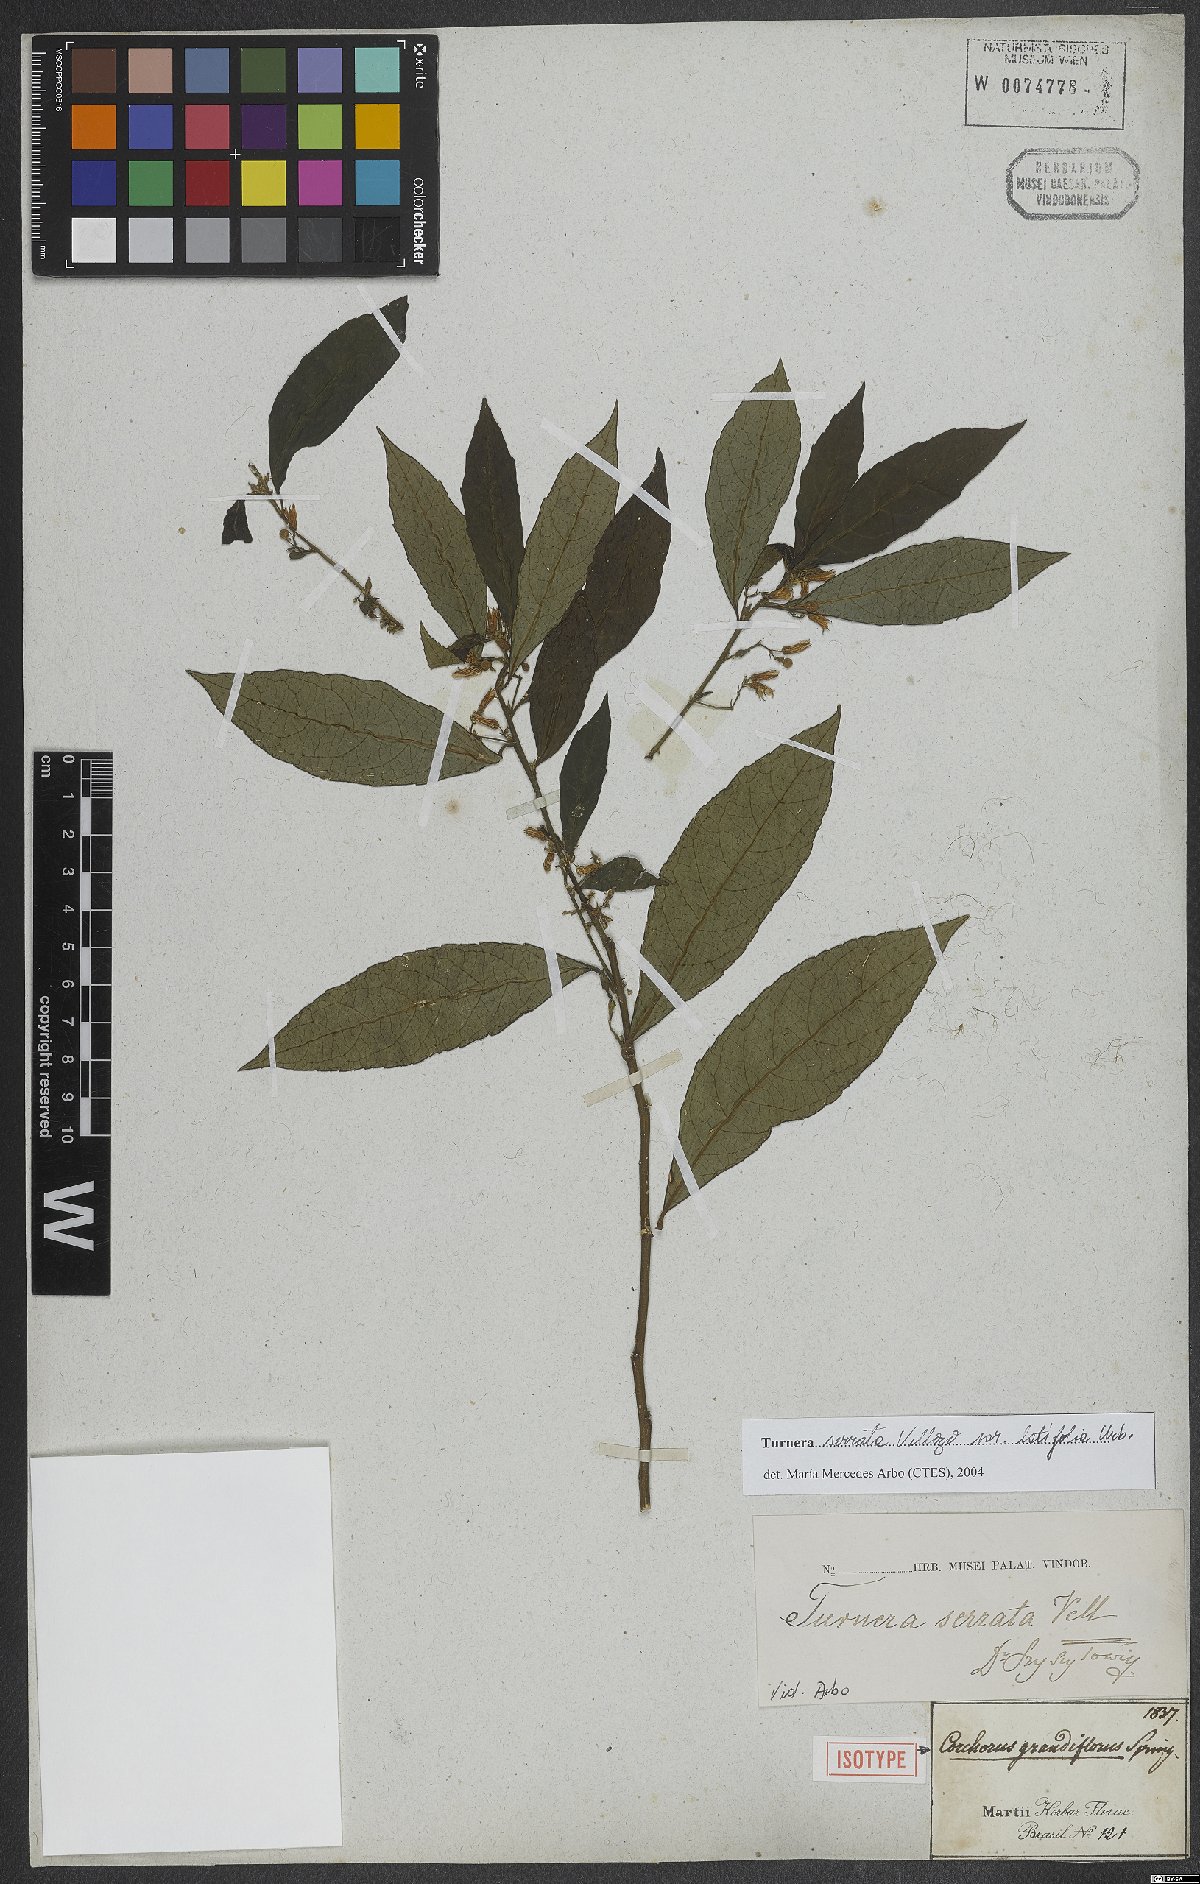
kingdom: Plantae
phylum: Tracheophyta
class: Magnoliopsida
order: Malpighiales
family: Turneraceae
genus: Turnera
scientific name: Turnera serrata
